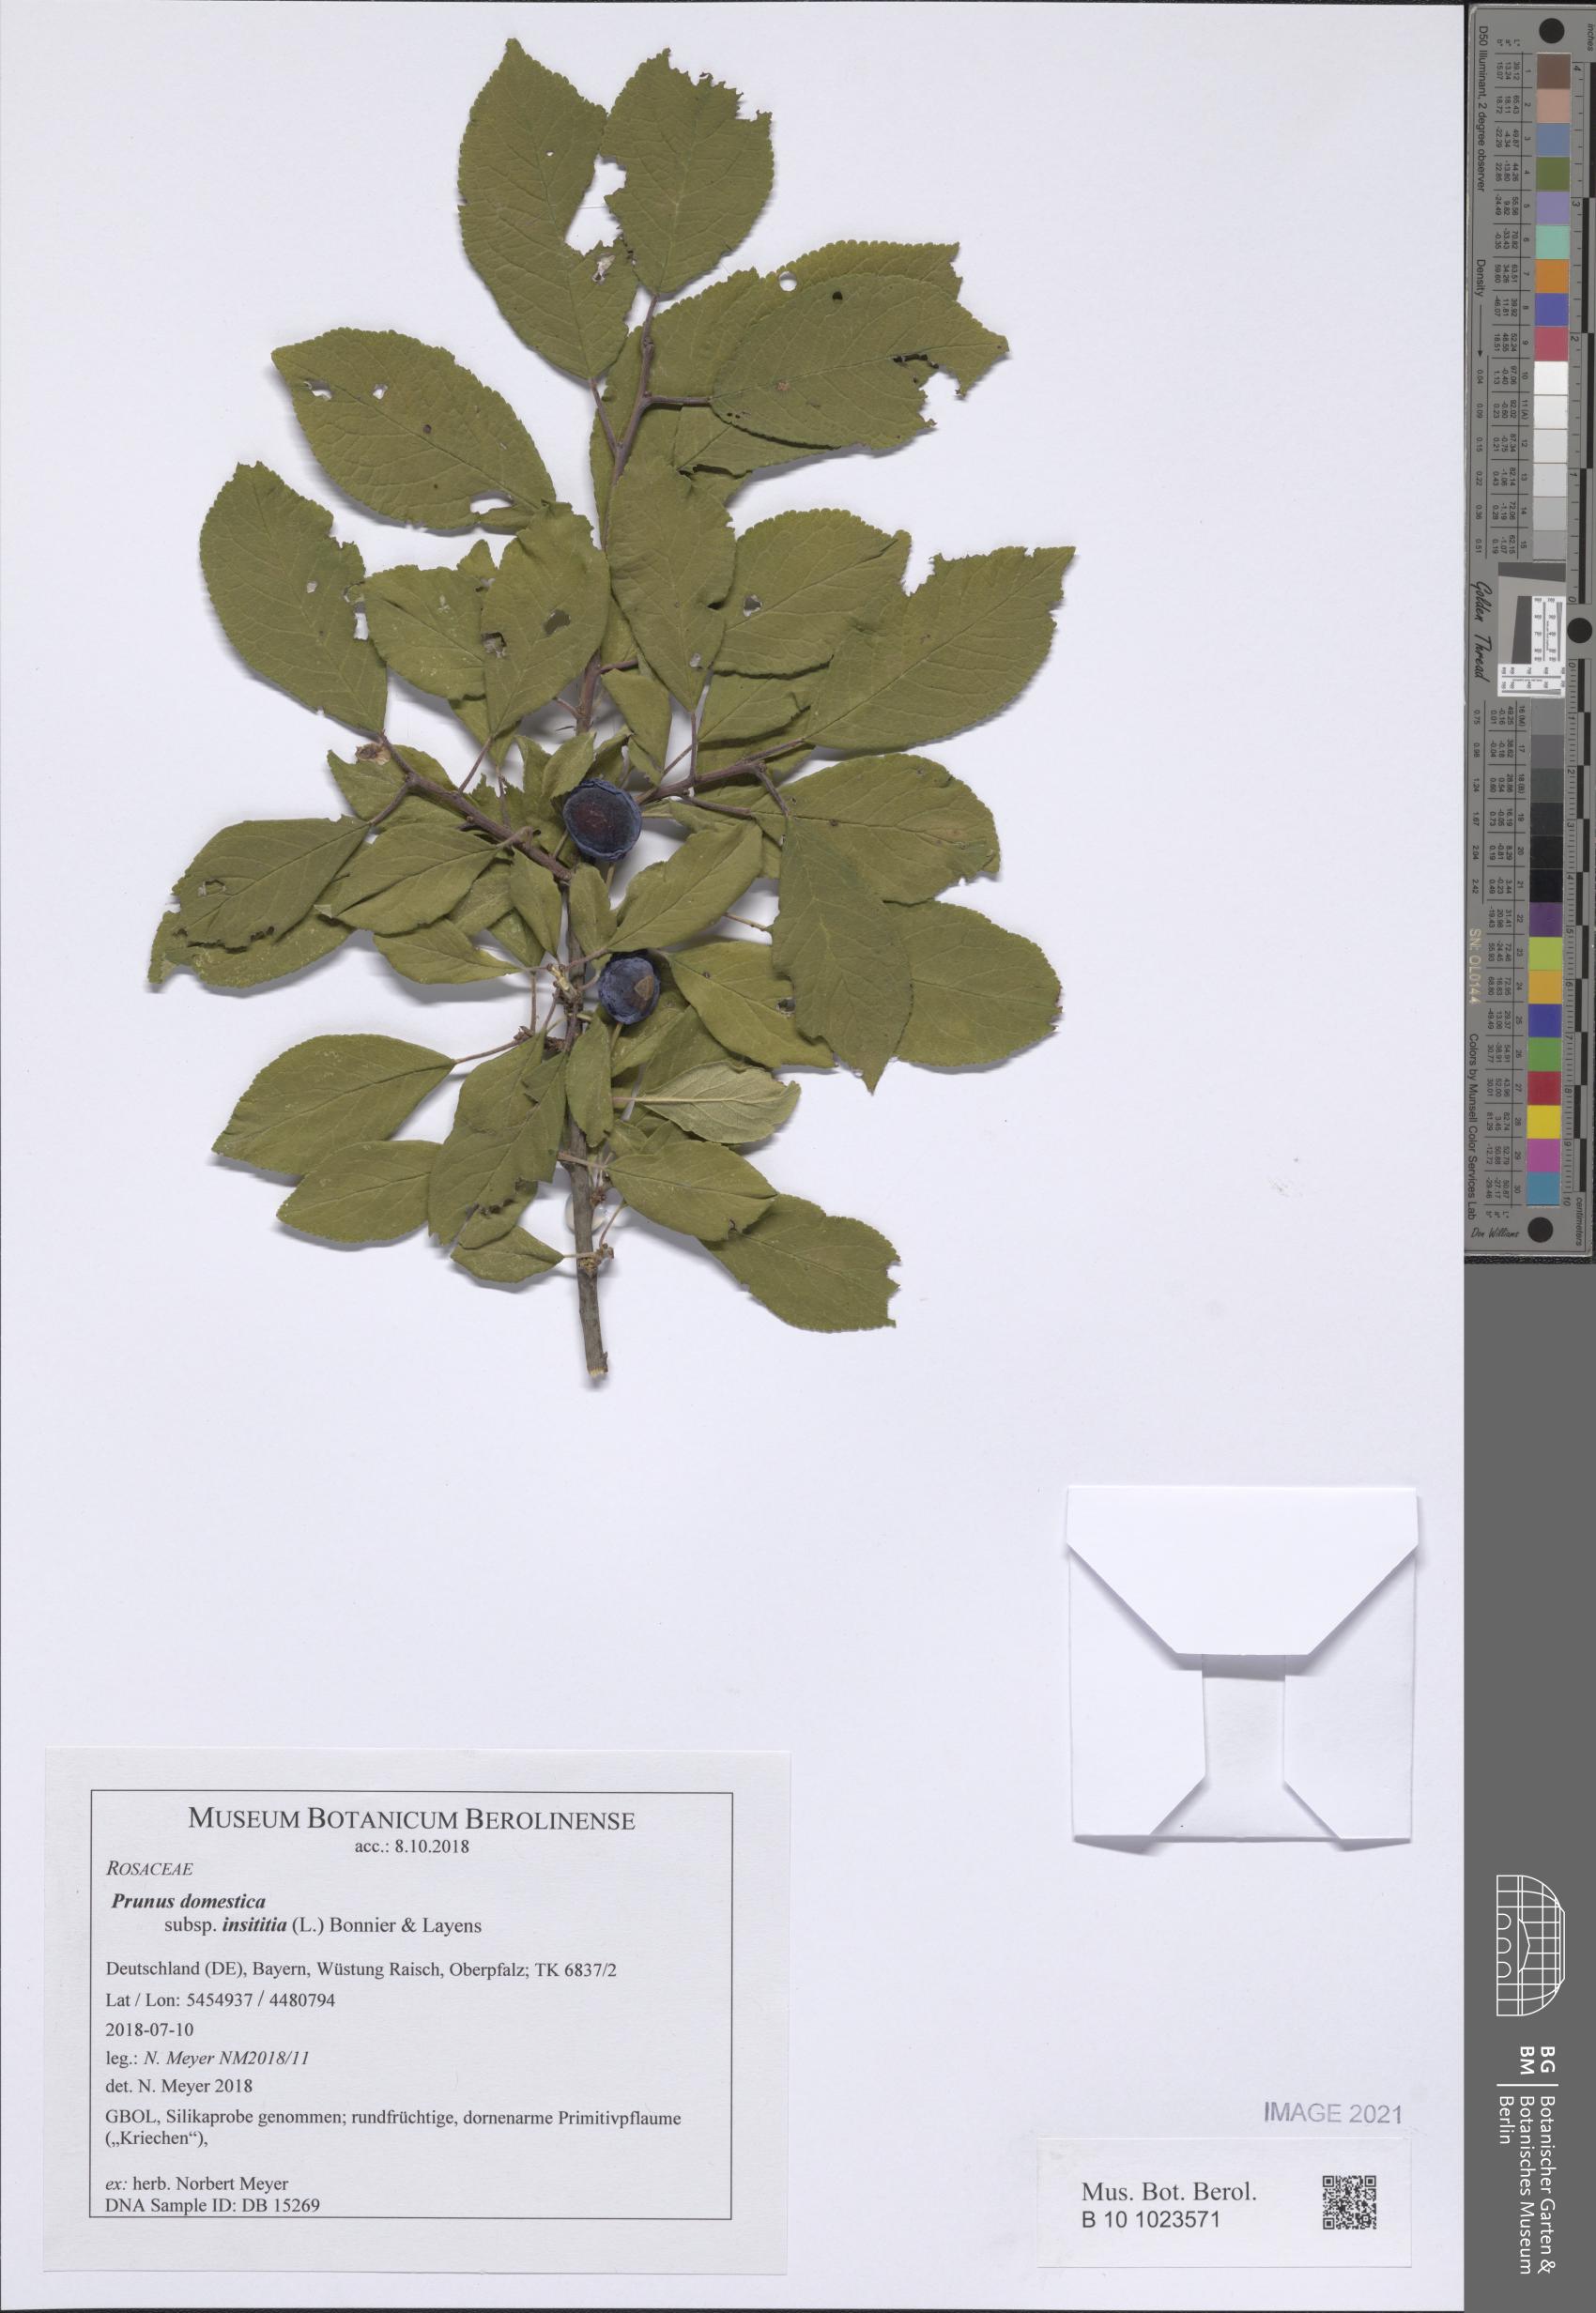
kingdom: Plantae
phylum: Tracheophyta
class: Magnoliopsida
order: Rosales
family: Rosaceae
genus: Prunus
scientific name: Prunus domestica
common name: Wild plum
